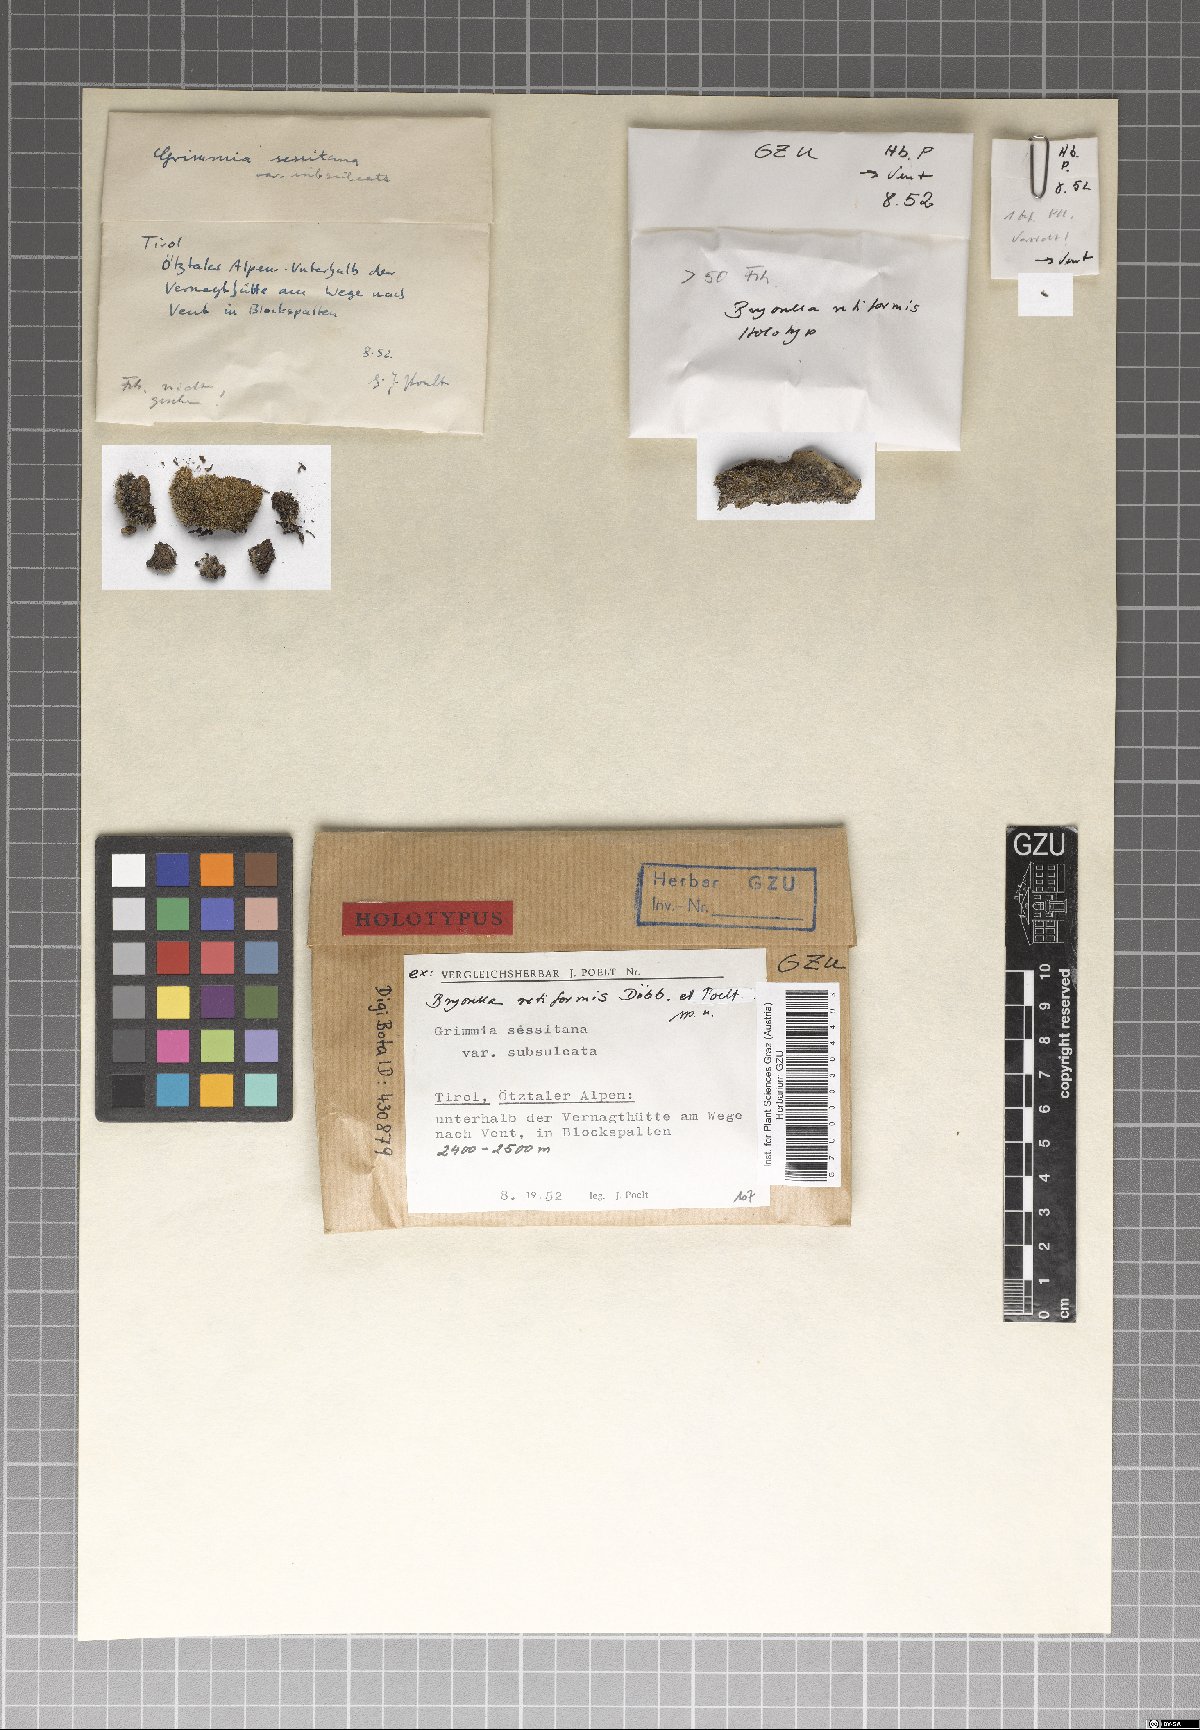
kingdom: Fungi
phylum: Ascomycota
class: Dothideomycetes
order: Dothideales
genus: Bryorella
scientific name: Bryorella retiformis
